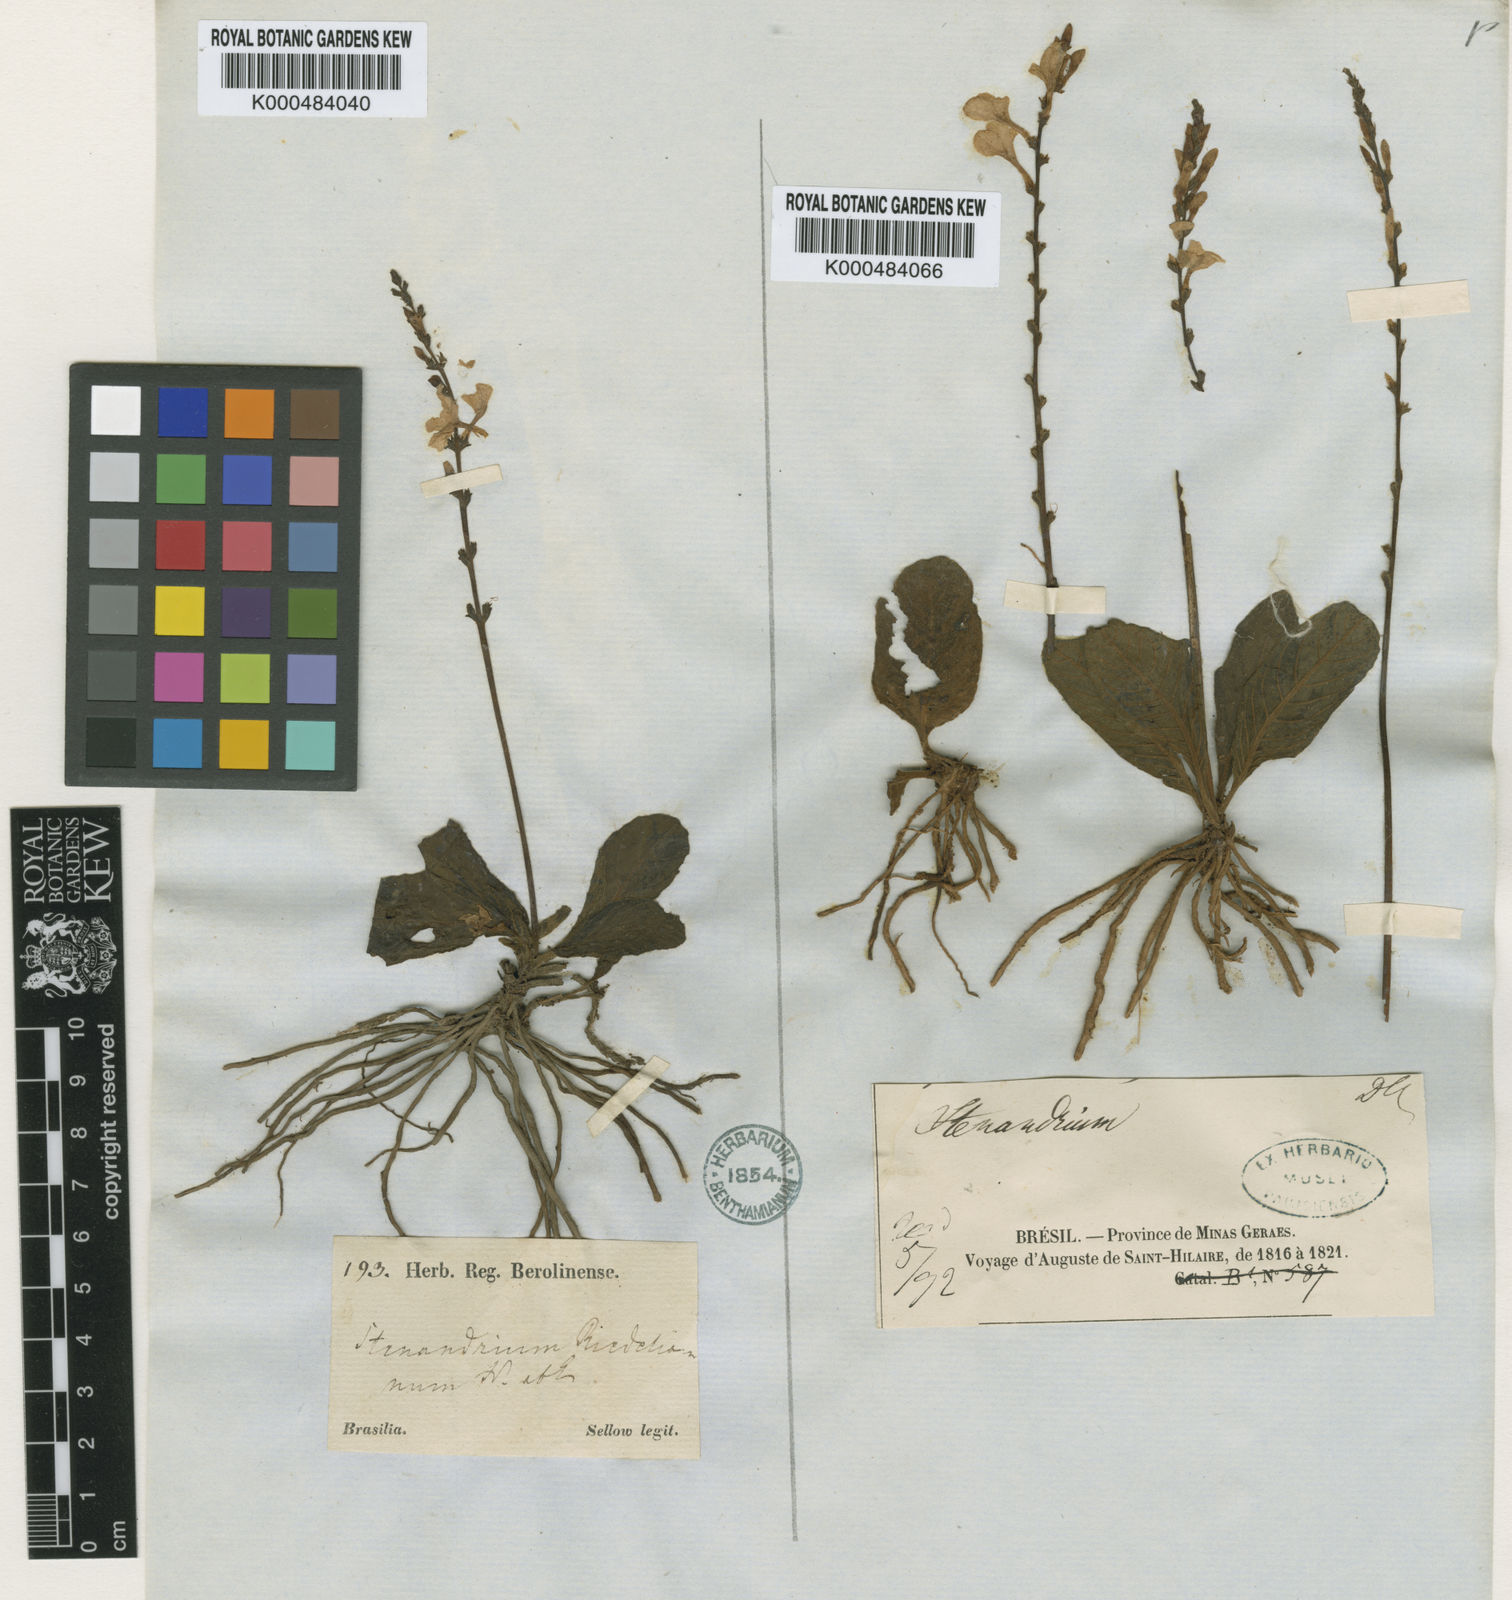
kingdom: Plantae
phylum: Tracheophyta
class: Magnoliopsida
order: Lamiales
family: Acanthaceae
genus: Stenandrium
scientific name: Stenandrium riedelianum
